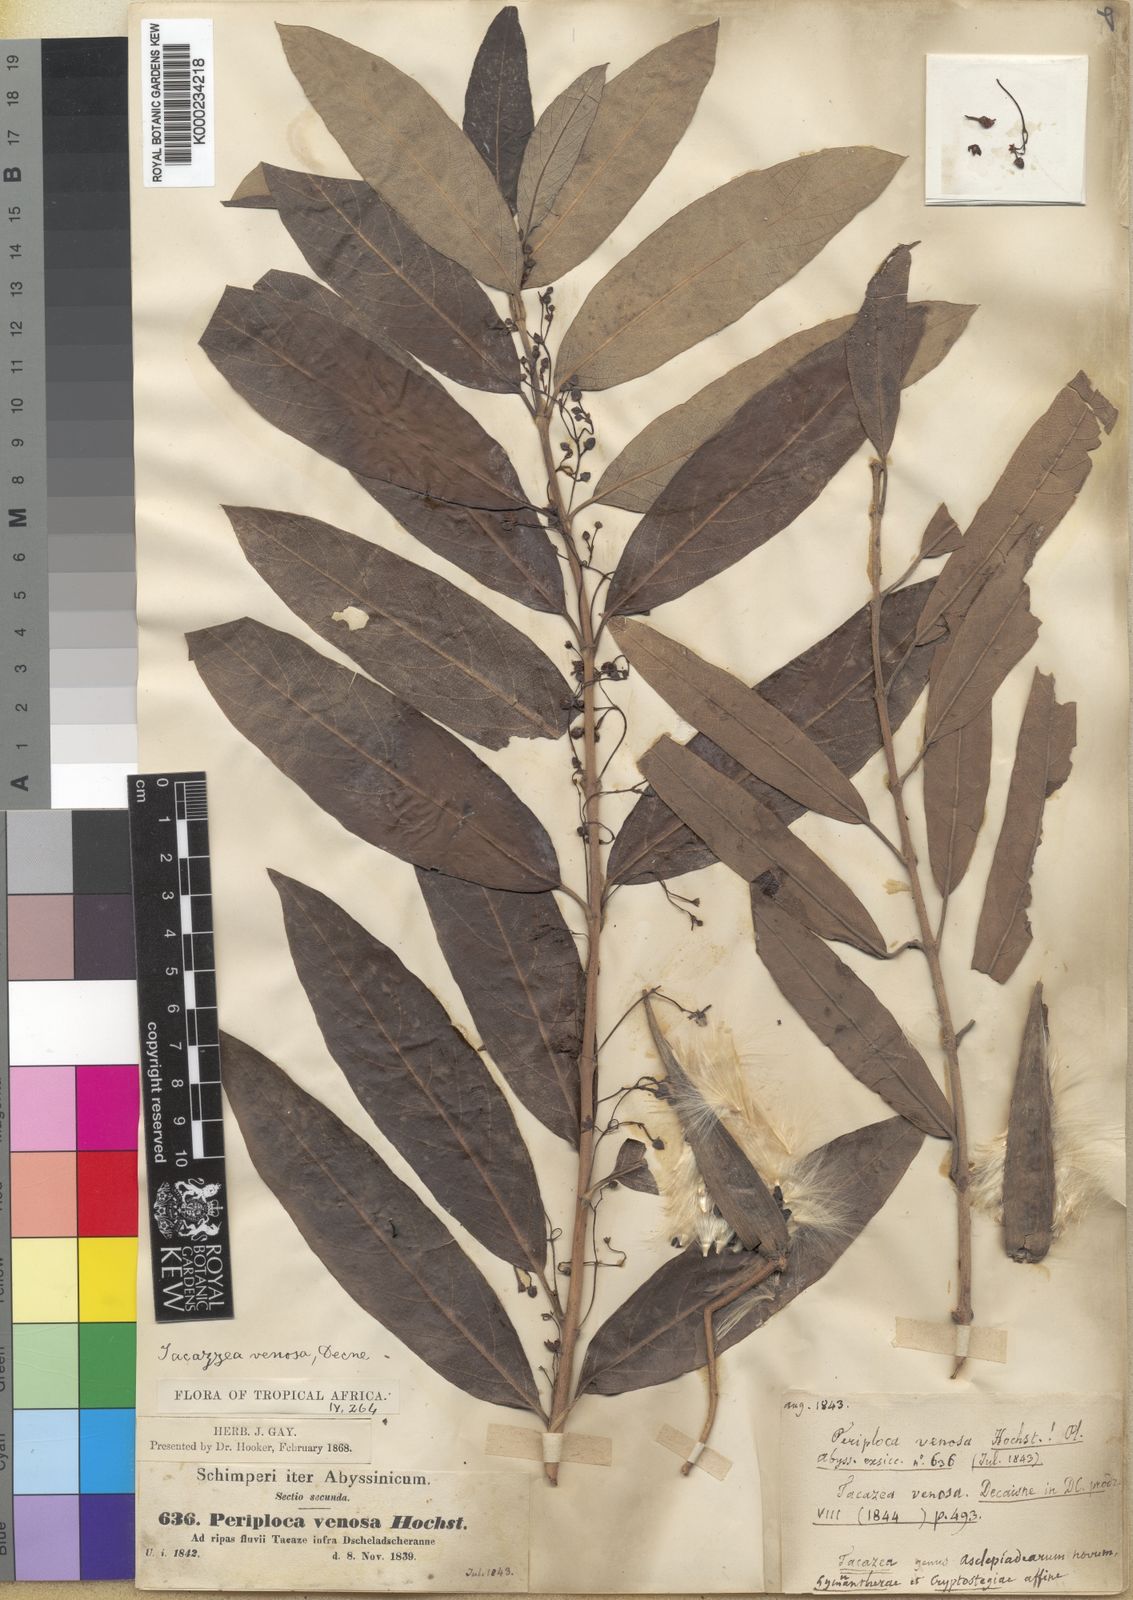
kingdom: Plantae
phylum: Tracheophyta
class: Magnoliopsida
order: Gentianales
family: Apocynaceae
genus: Tacazzea
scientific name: Tacazzea
